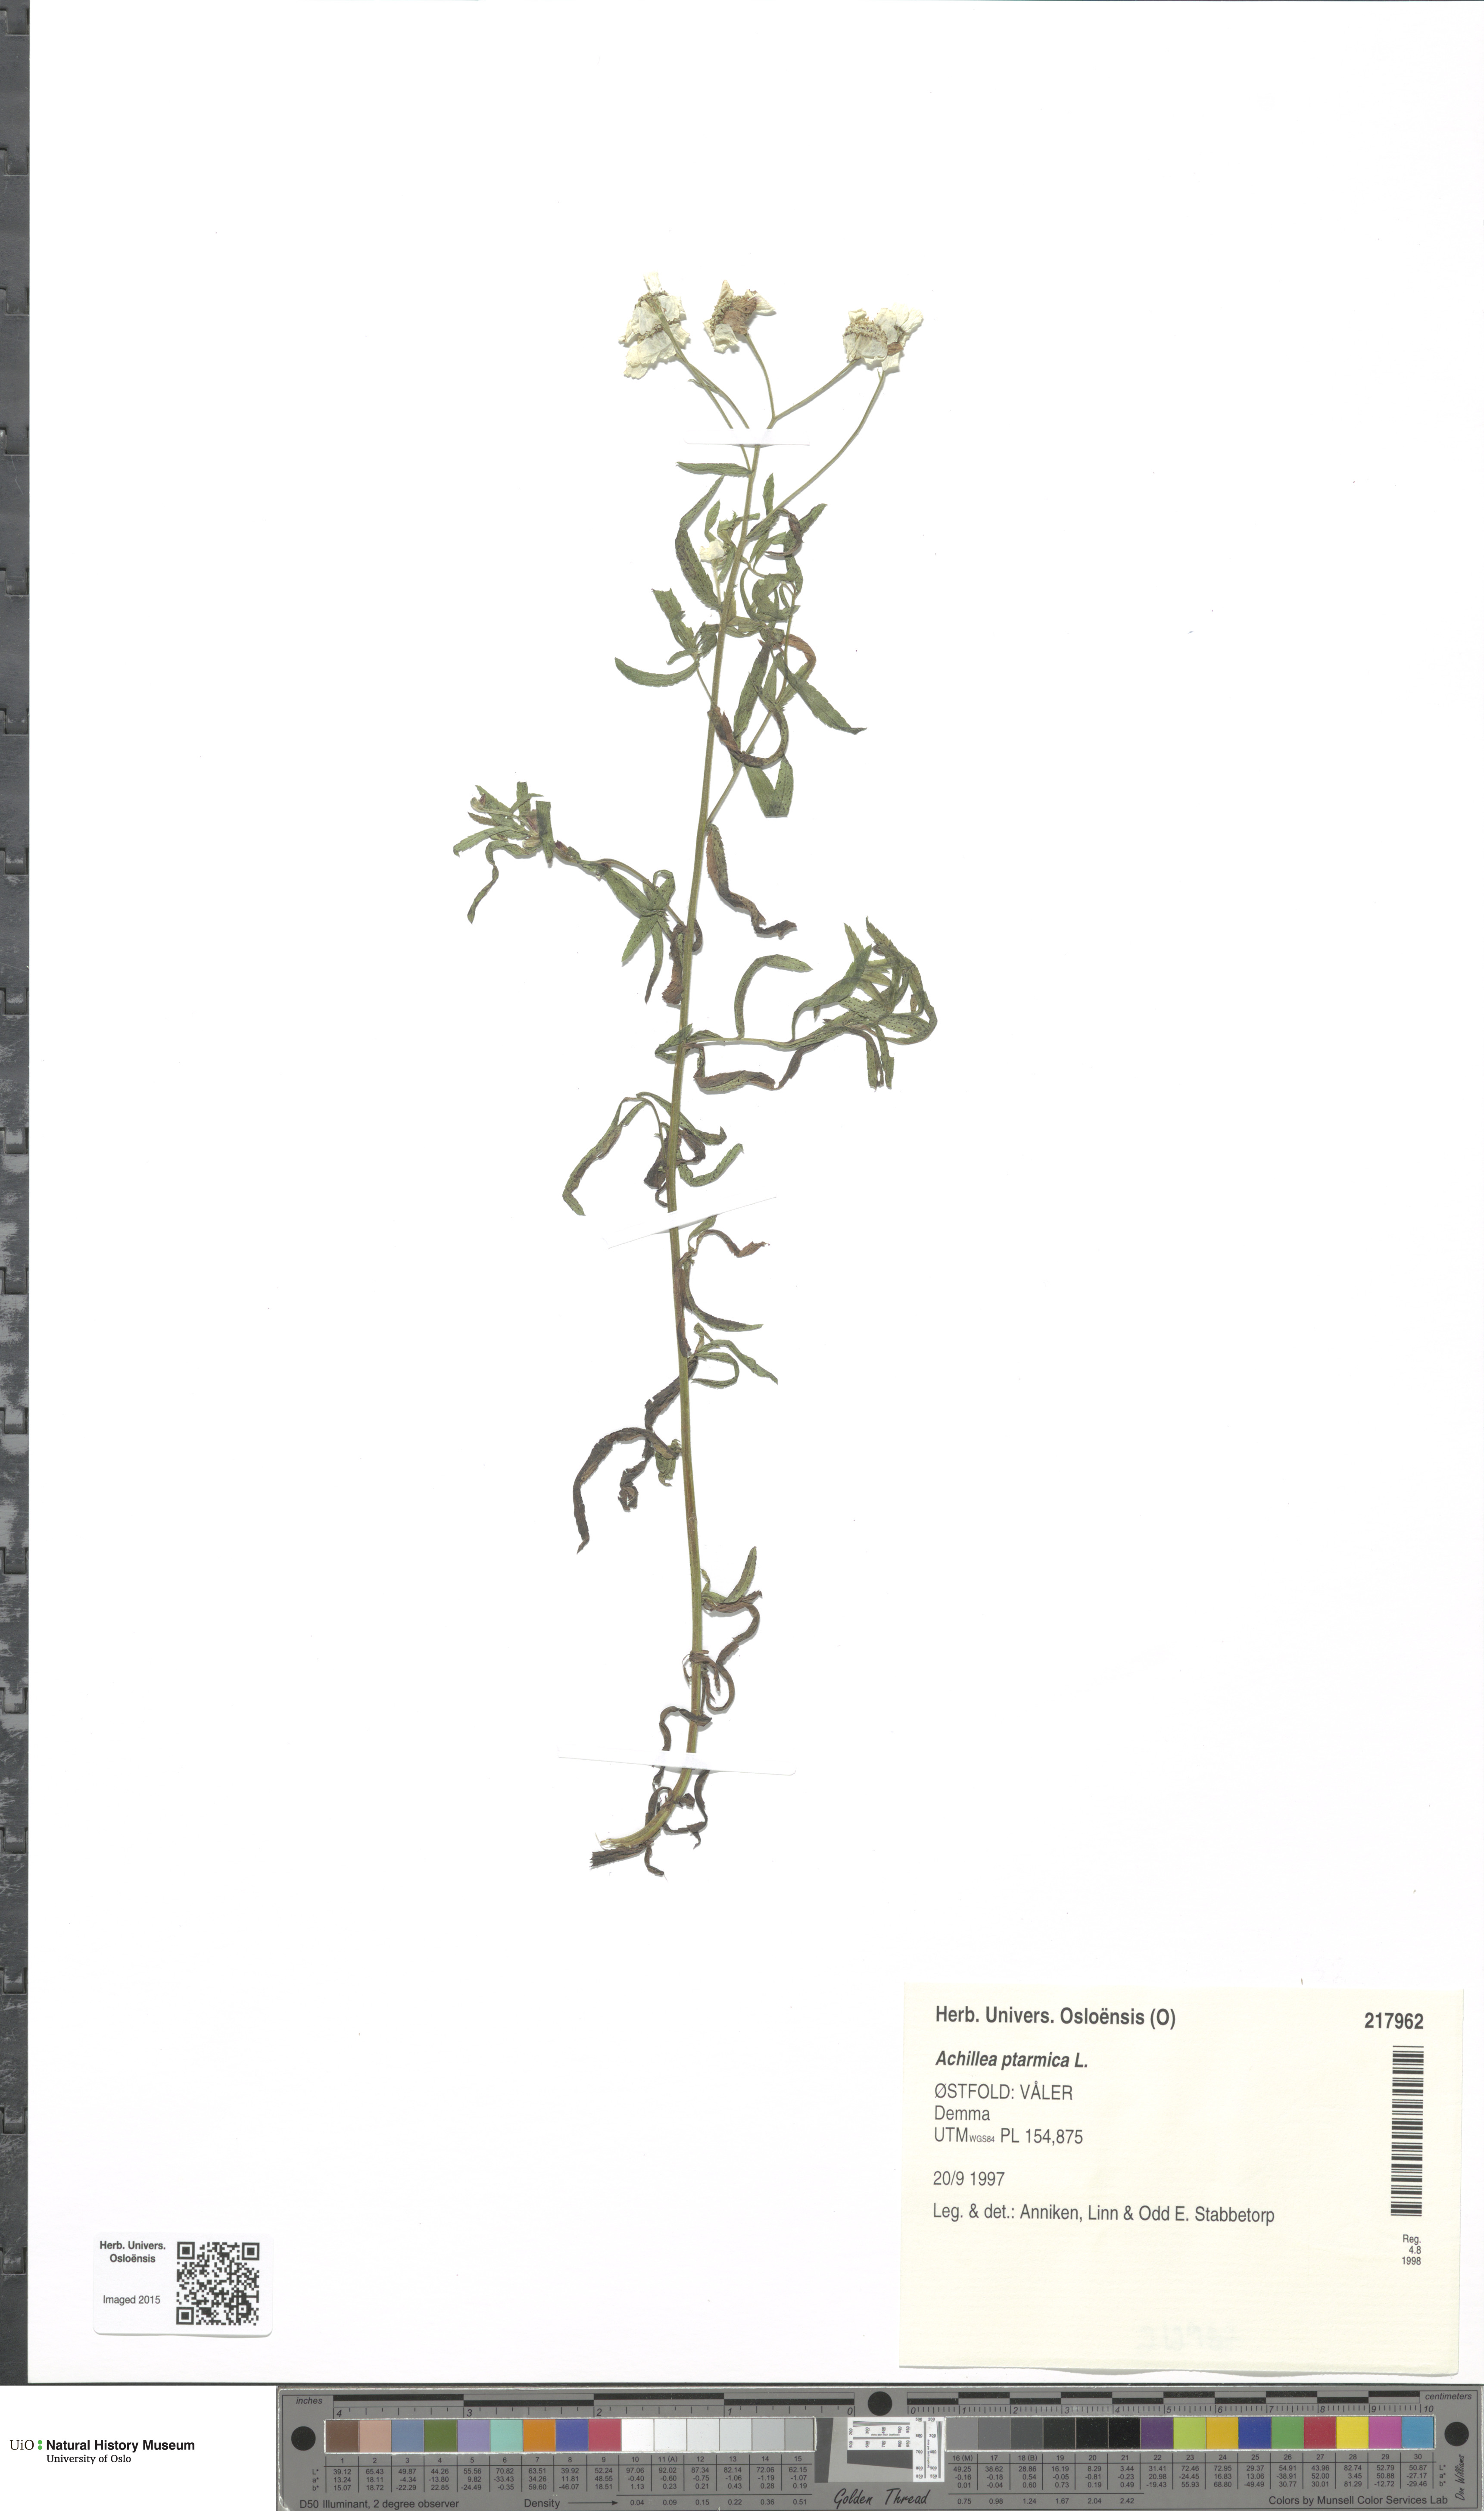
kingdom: Plantae
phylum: Tracheophyta
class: Magnoliopsida
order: Asterales
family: Asteraceae
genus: Achillea
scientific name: Achillea ptarmica
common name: Sneezeweed
